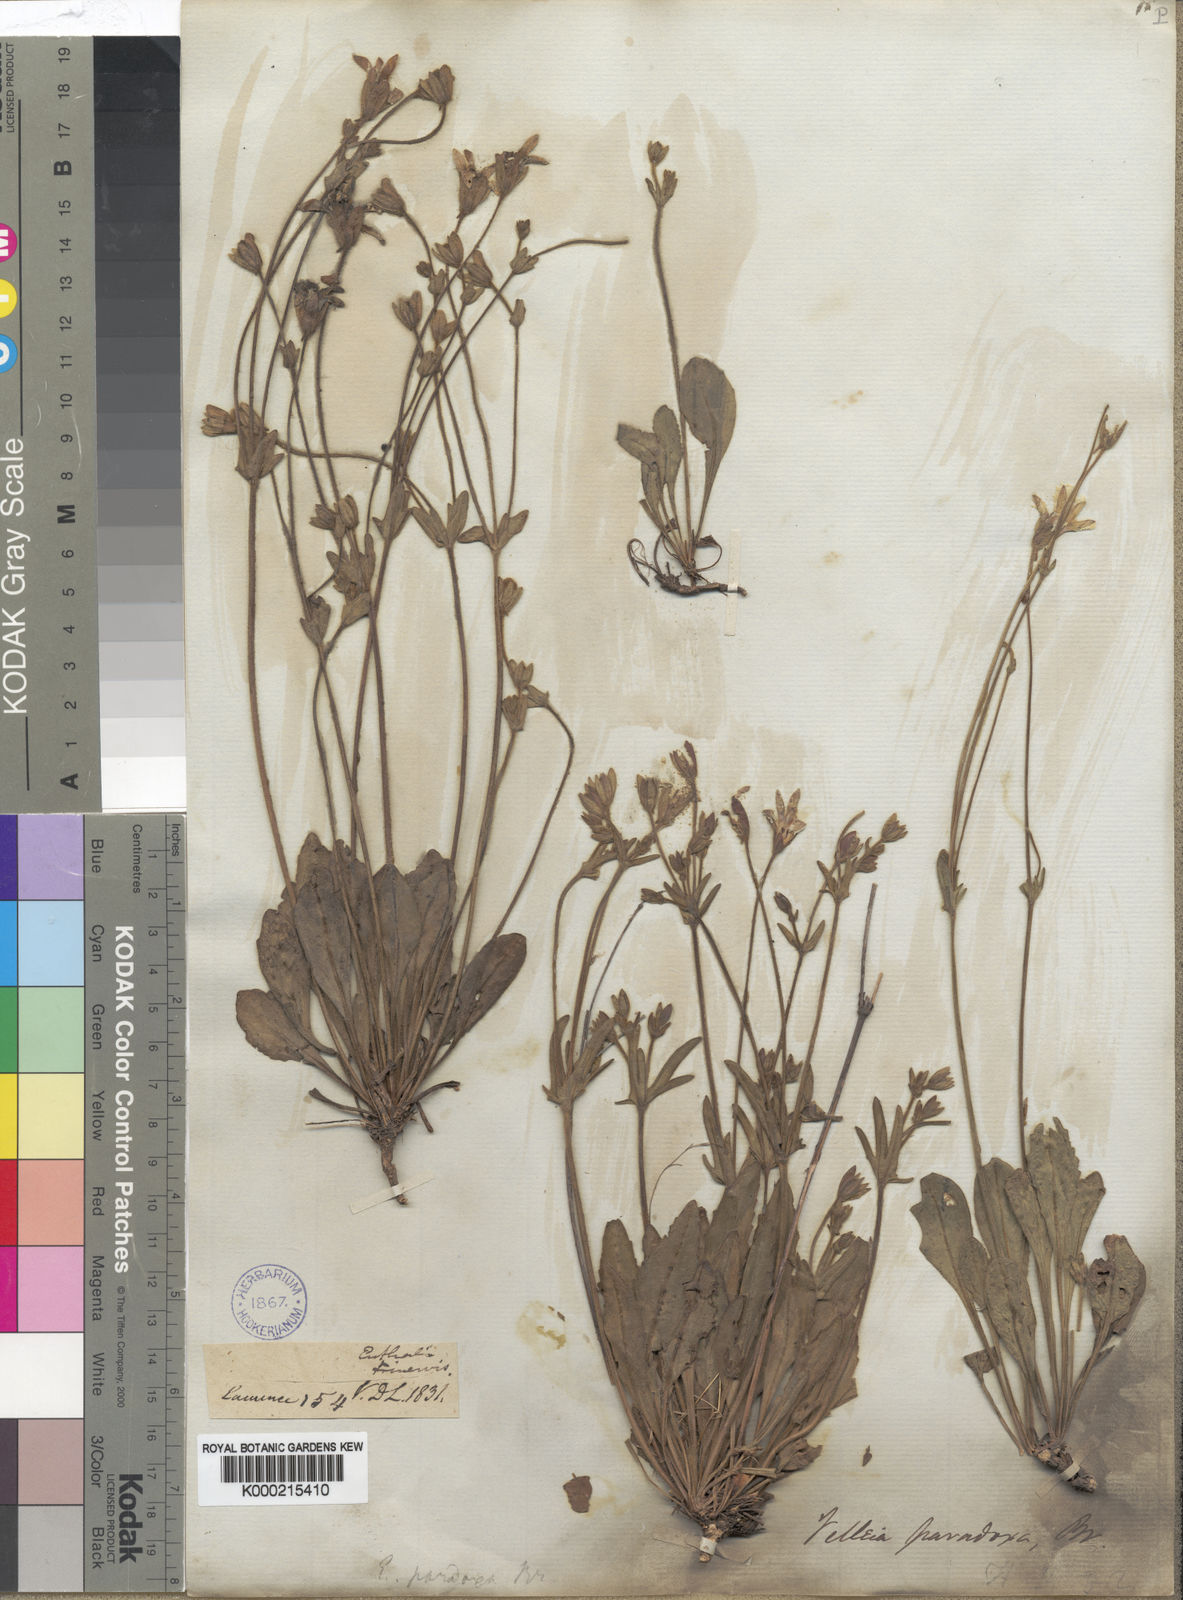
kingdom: Plantae
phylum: Tracheophyta
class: Magnoliopsida
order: Asterales
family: Goodeniaceae
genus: Goodenia
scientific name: Goodenia paradoxa
